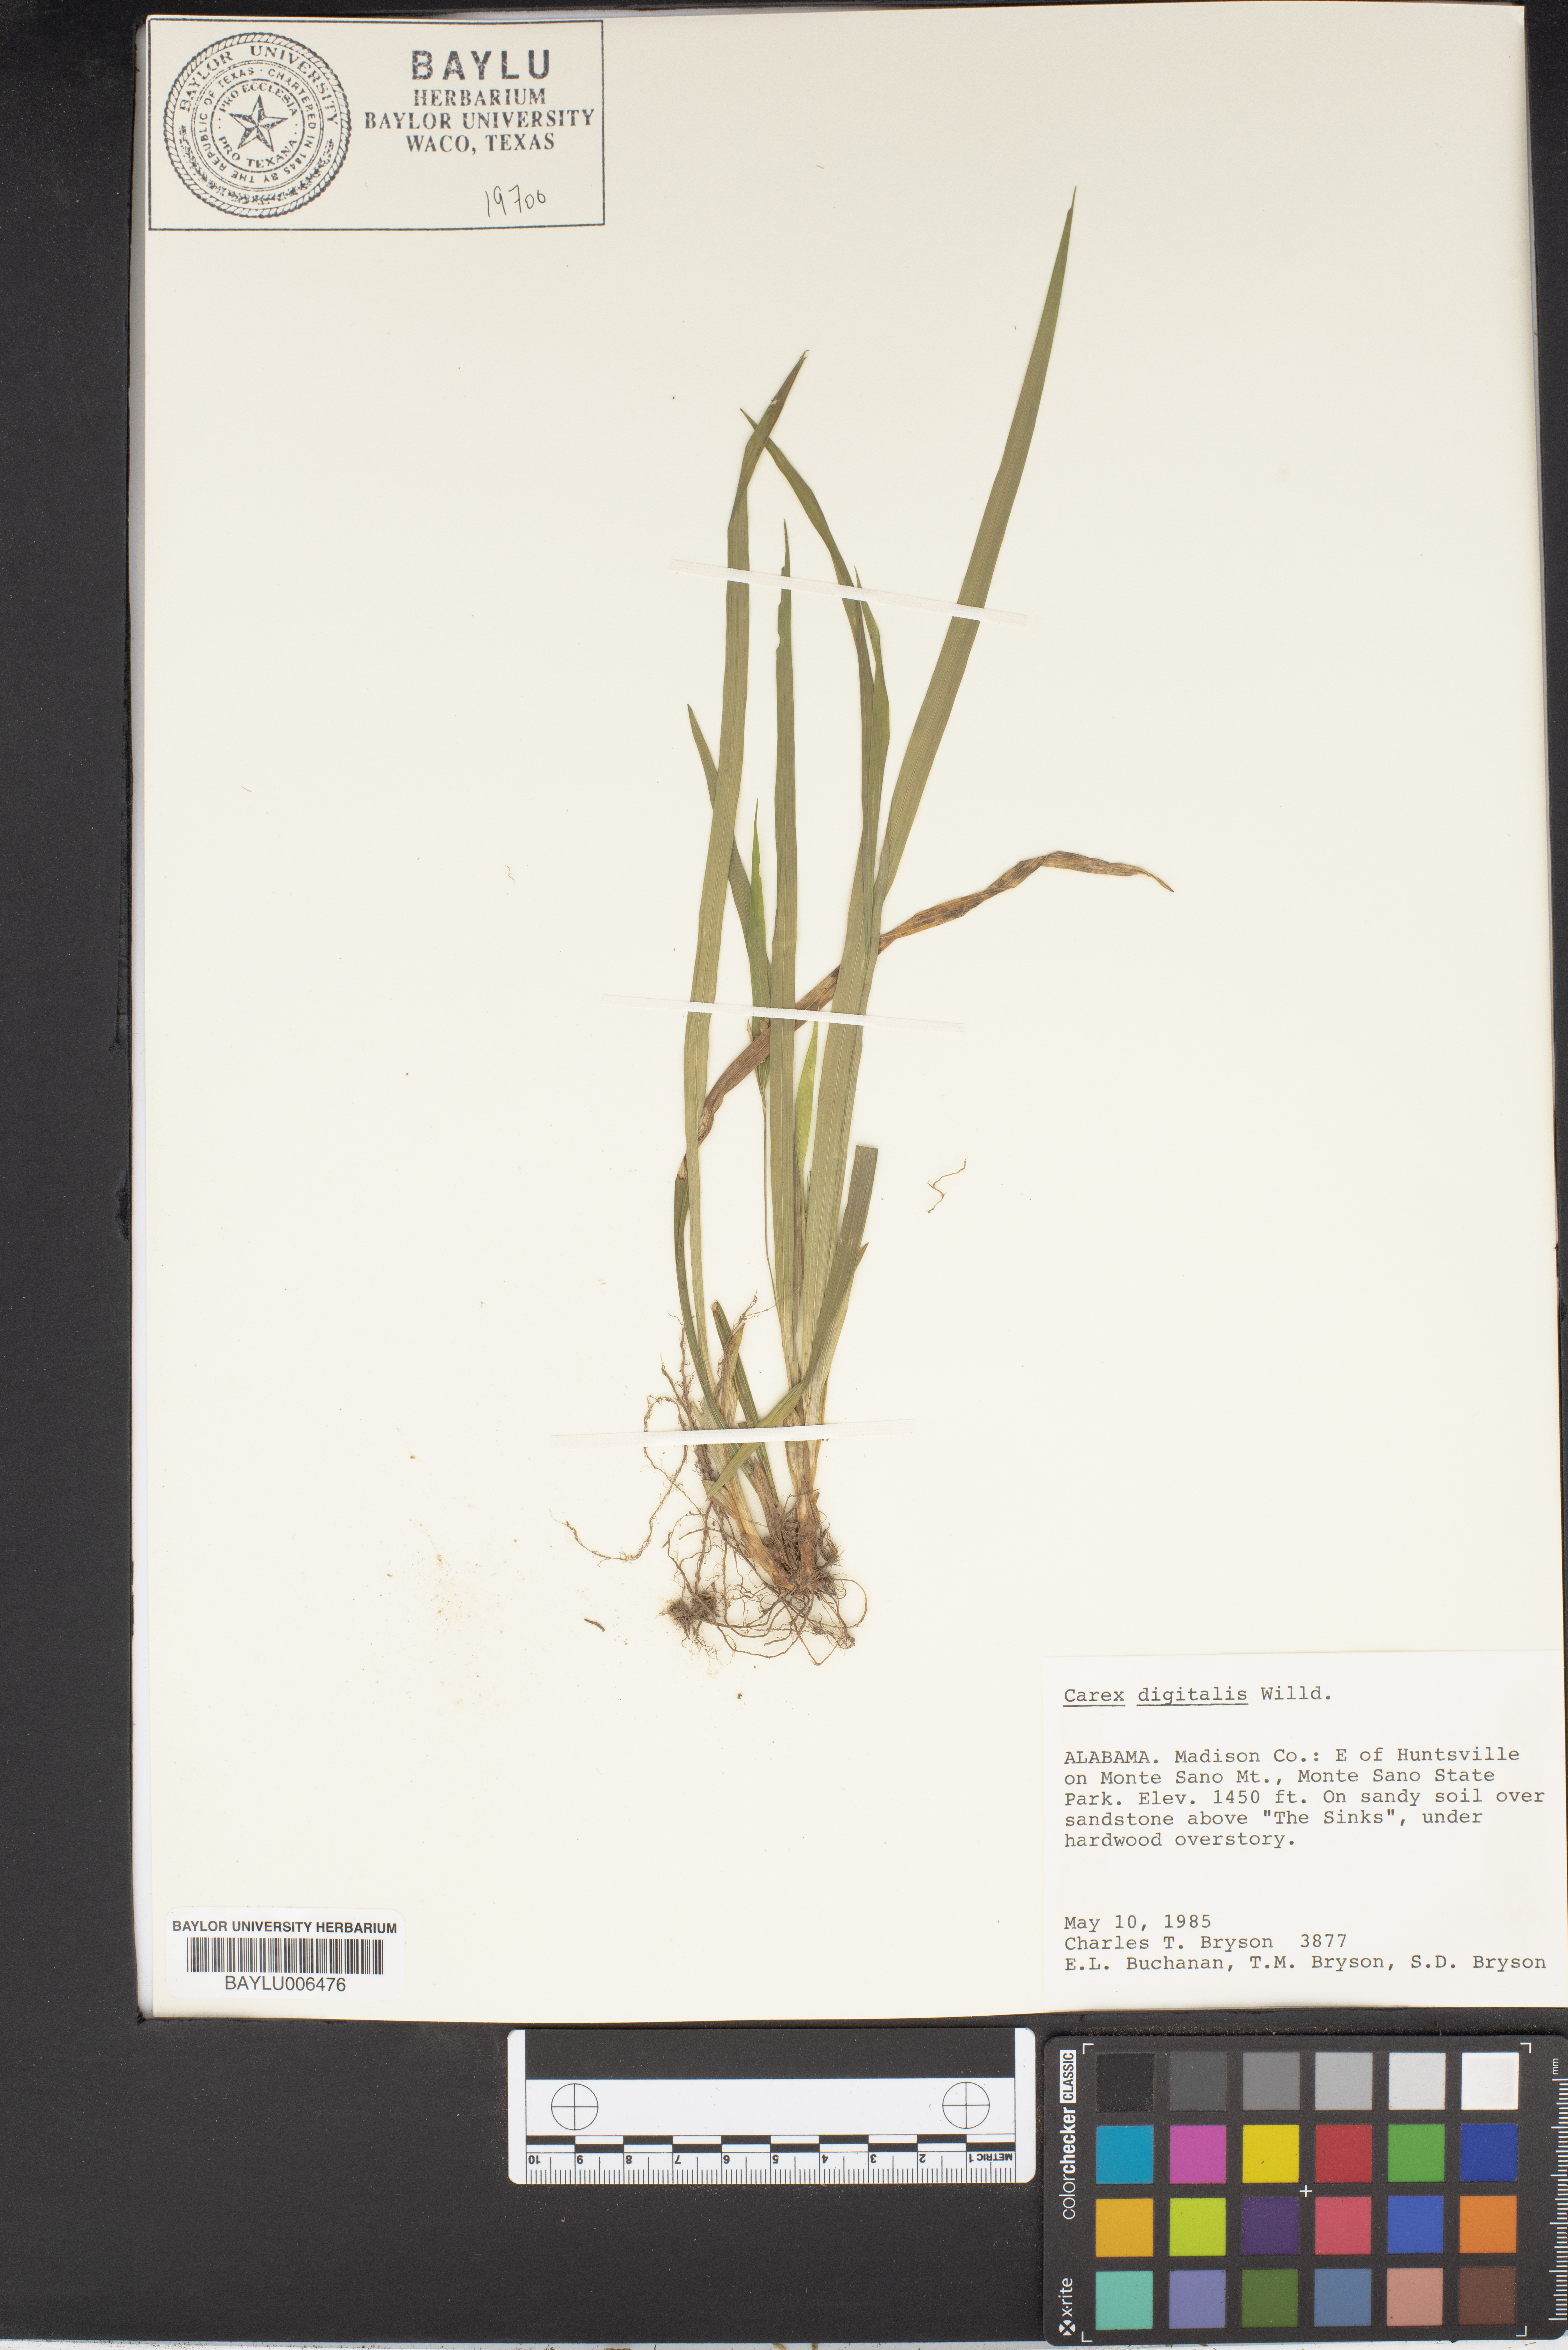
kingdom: Plantae
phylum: Tracheophyta
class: Liliopsida
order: Poales
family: Cyperaceae
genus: Carex
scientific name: Carex digitalis
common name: Slender wood sedge
